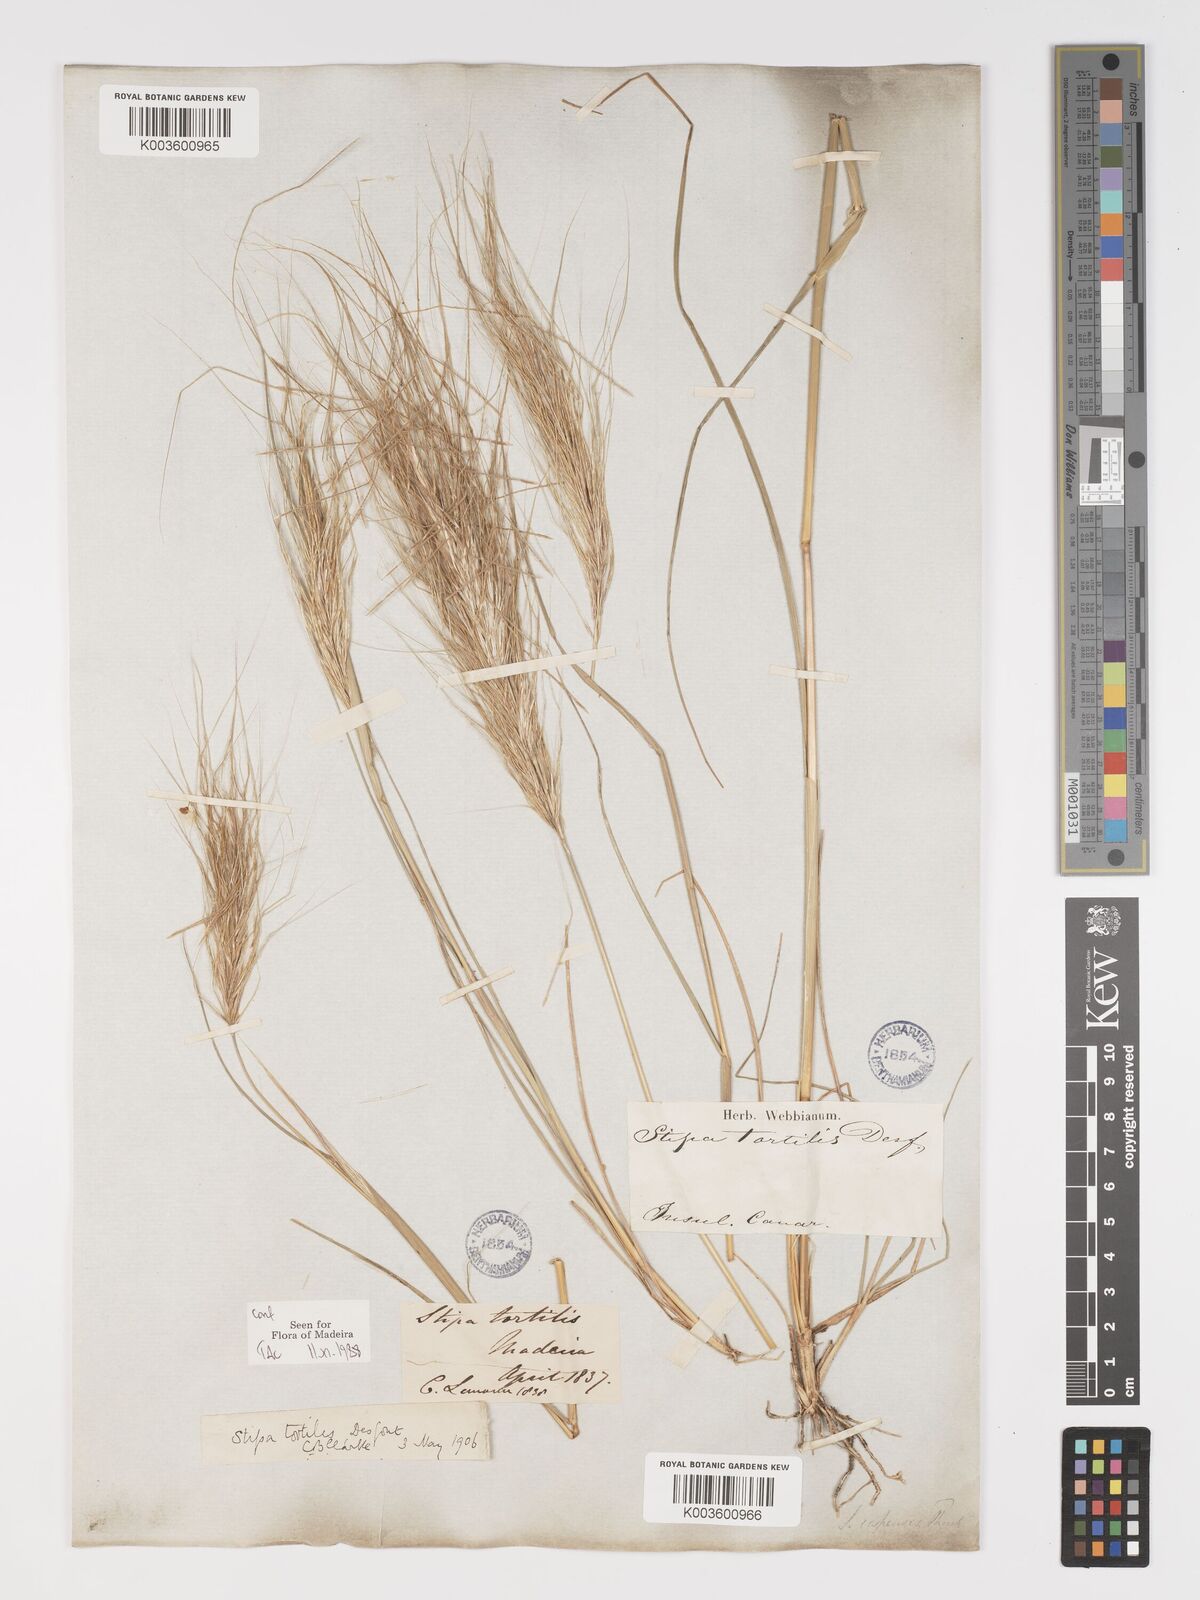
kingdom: Plantae
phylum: Tracheophyta
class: Liliopsida
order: Poales
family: Poaceae
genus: Stipellula
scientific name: Stipellula capensis
